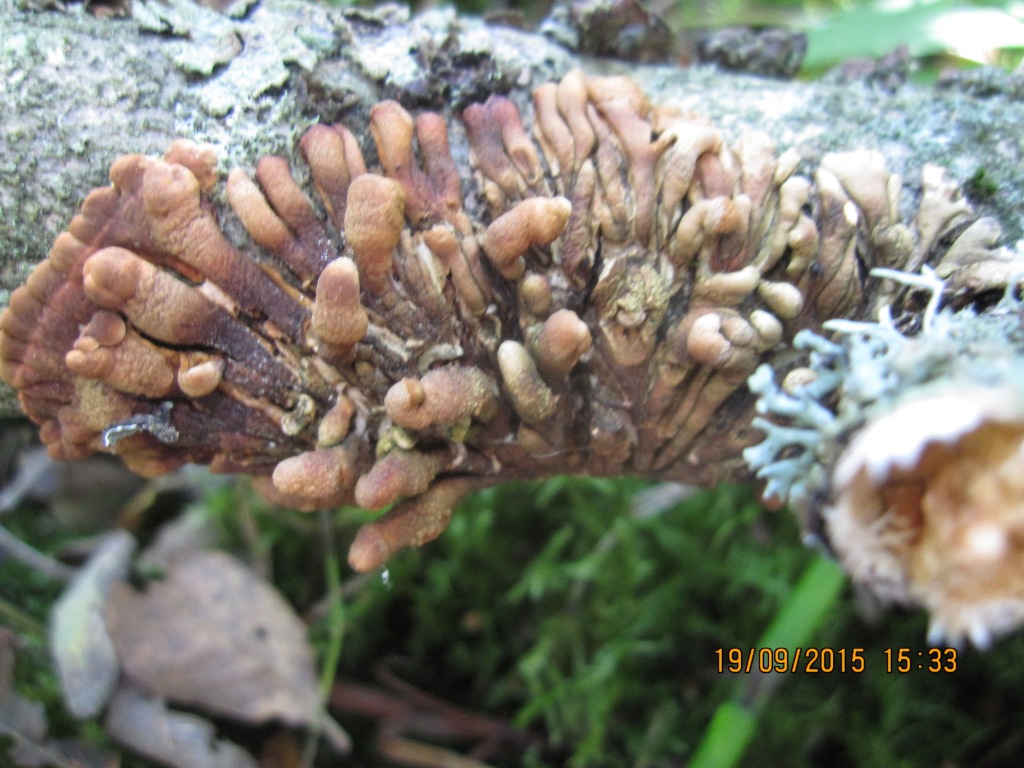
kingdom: Fungi
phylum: Ascomycota
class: Sordariomycetes
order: Hypocreales
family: Hypocreaceae
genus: Hypocreopsis
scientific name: Hypocreopsis lichenoides
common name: pilfinger
